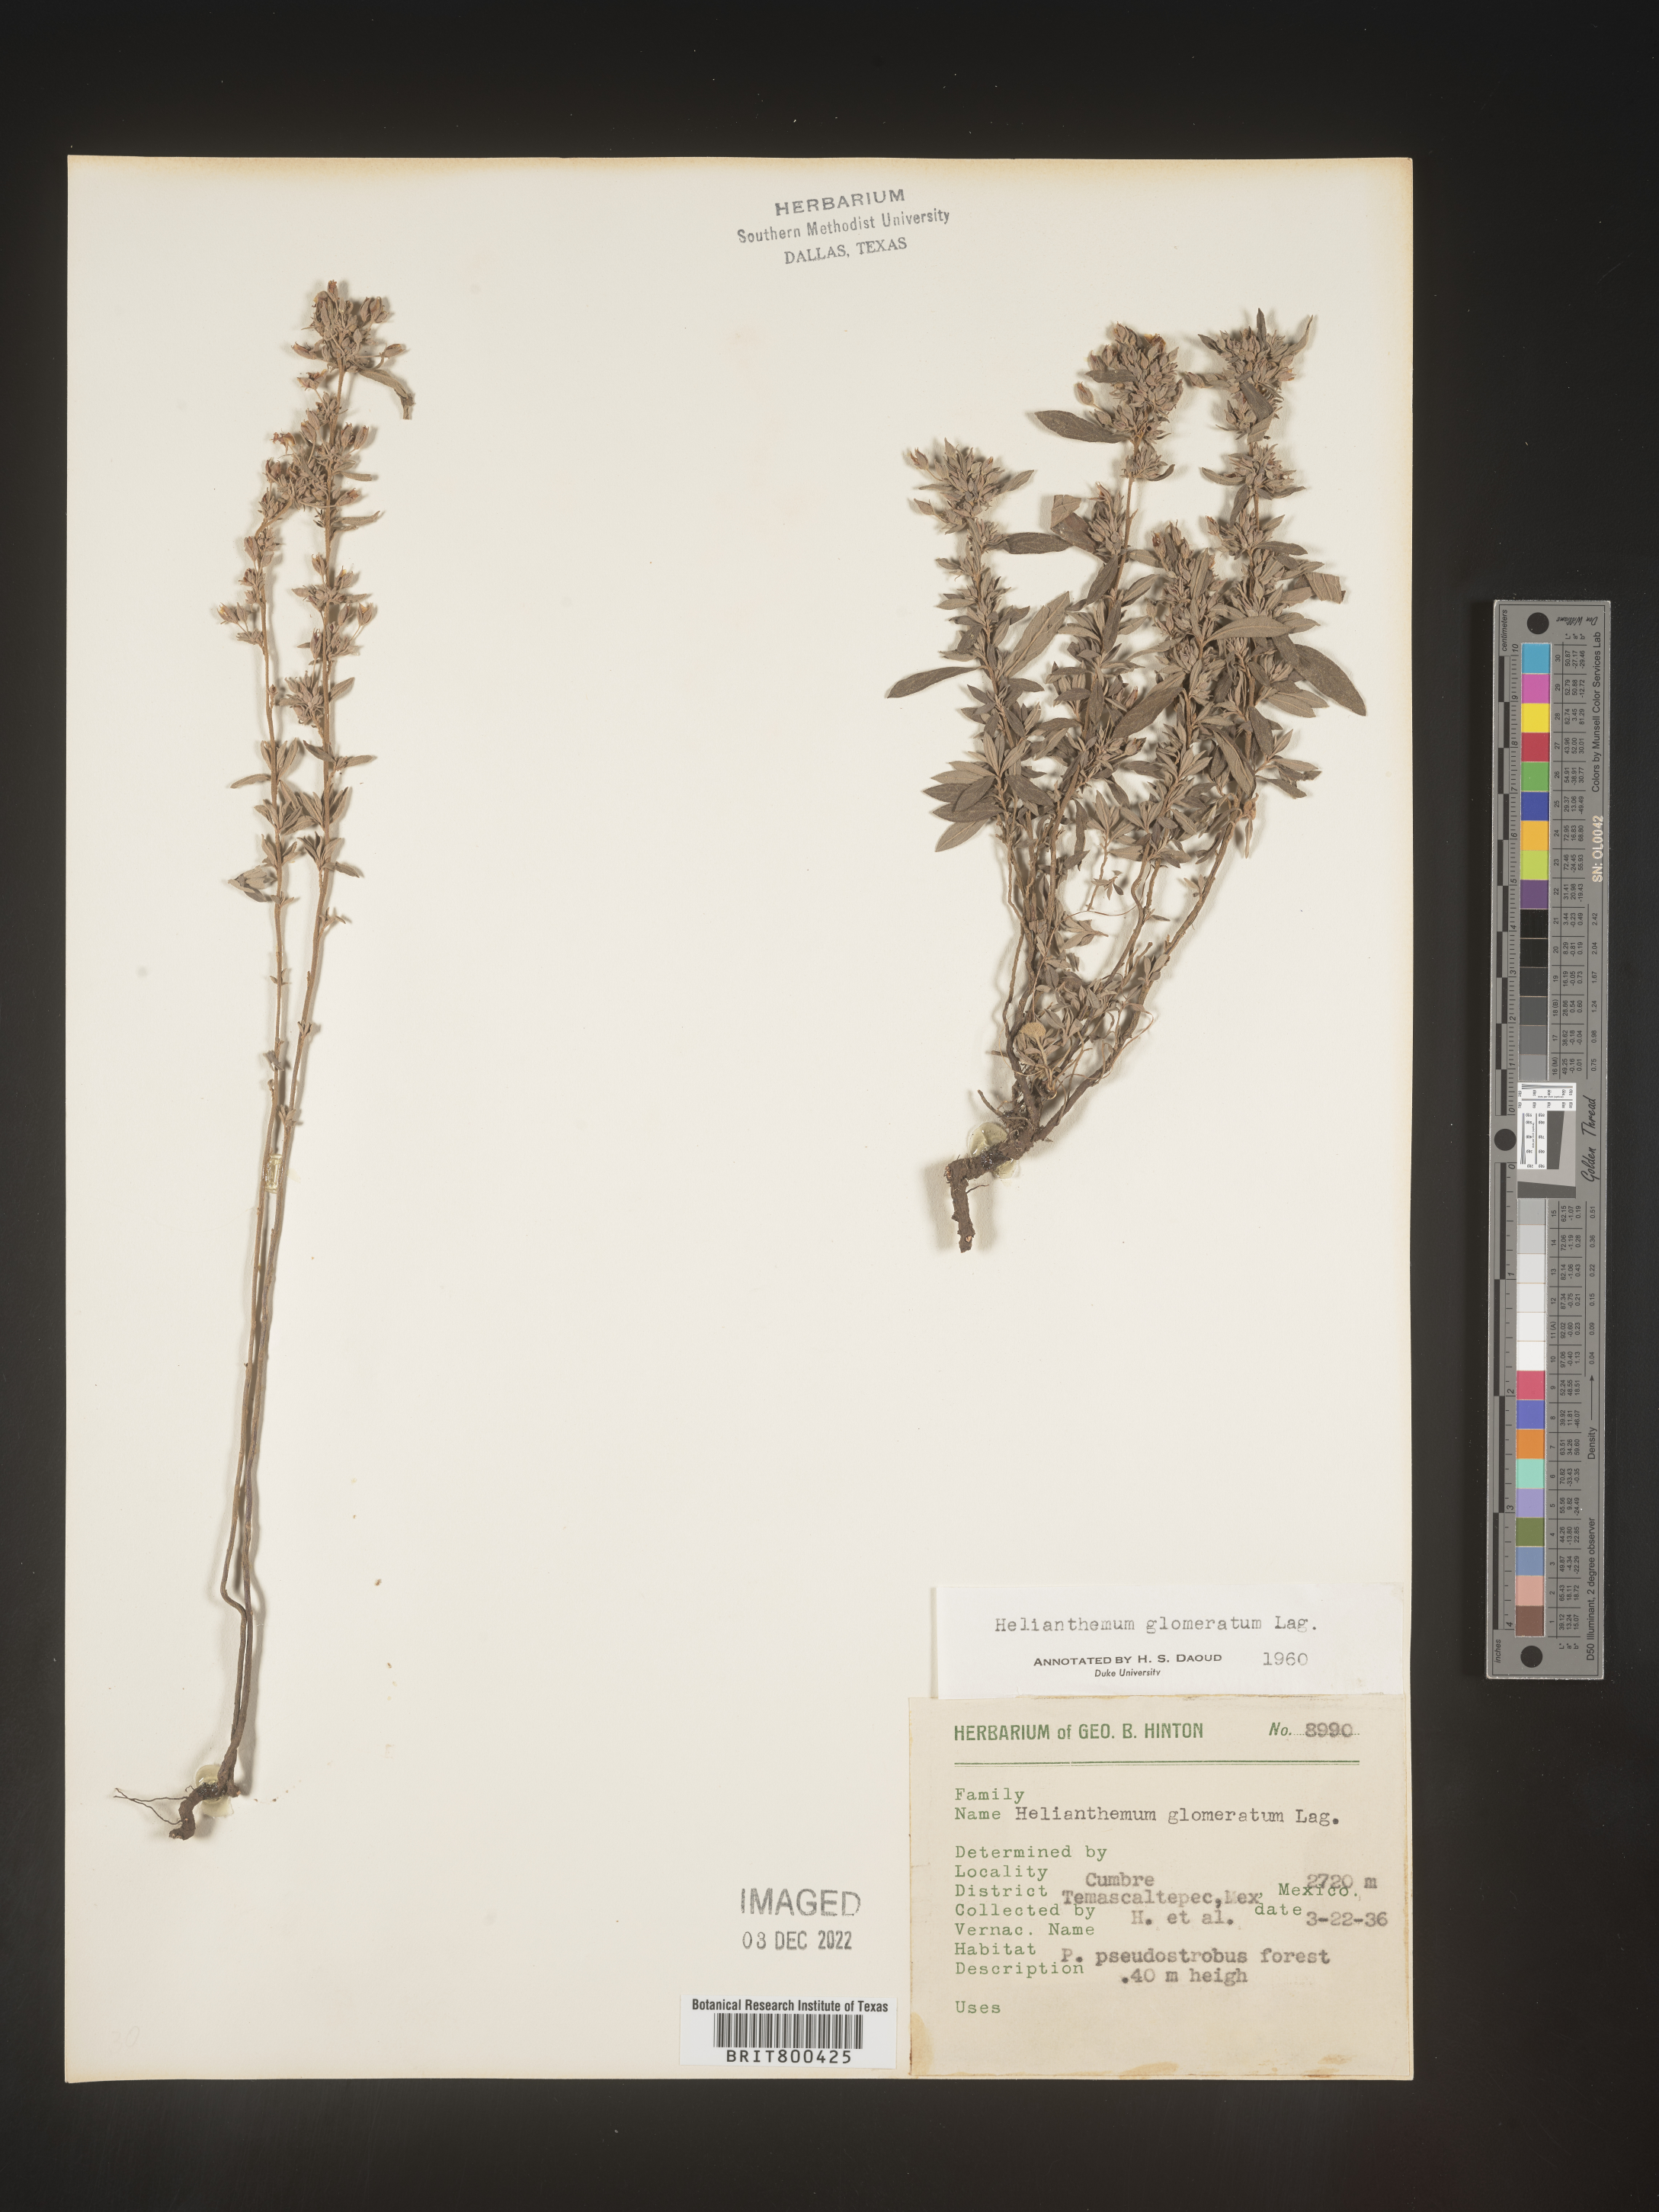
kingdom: Plantae
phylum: Tracheophyta
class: Magnoliopsida
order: Malvales
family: Cistaceae
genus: Helianthemum
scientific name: Helianthemum
